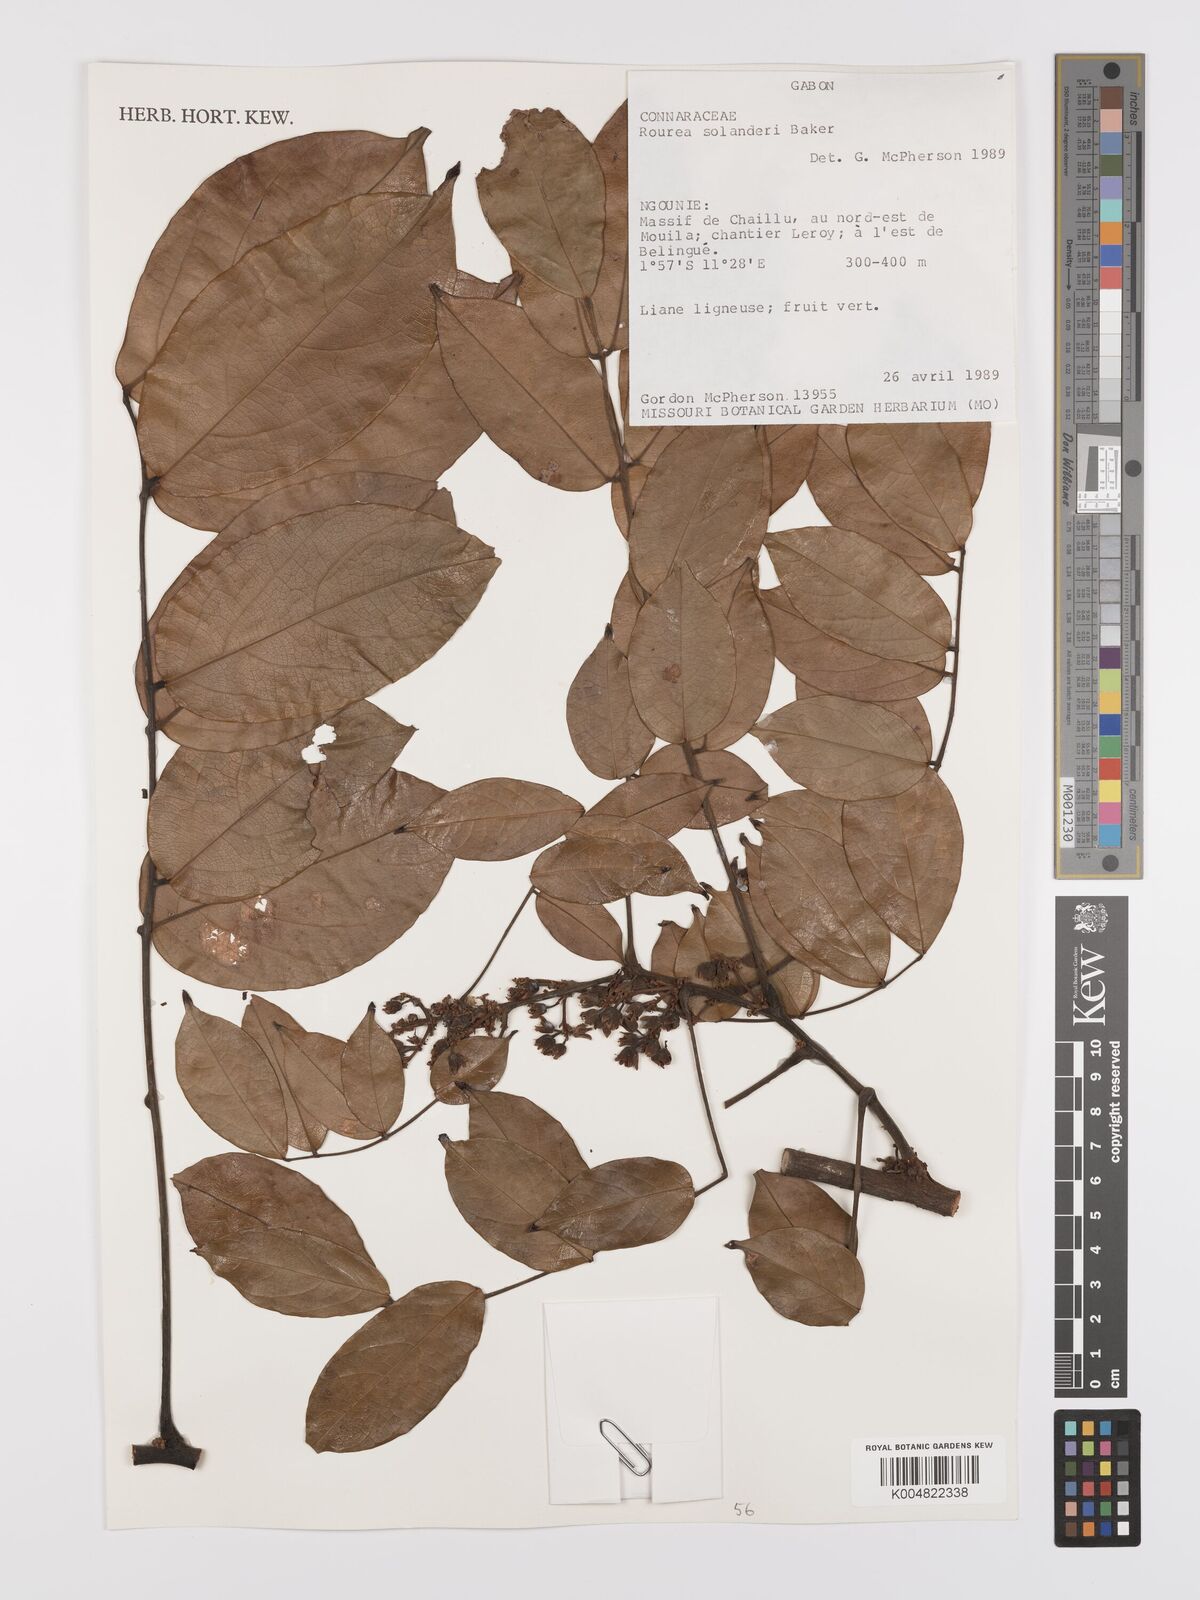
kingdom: Plantae
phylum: Tracheophyta
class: Magnoliopsida
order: Oxalidales
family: Connaraceae
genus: Rourea
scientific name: Rourea solanderi
